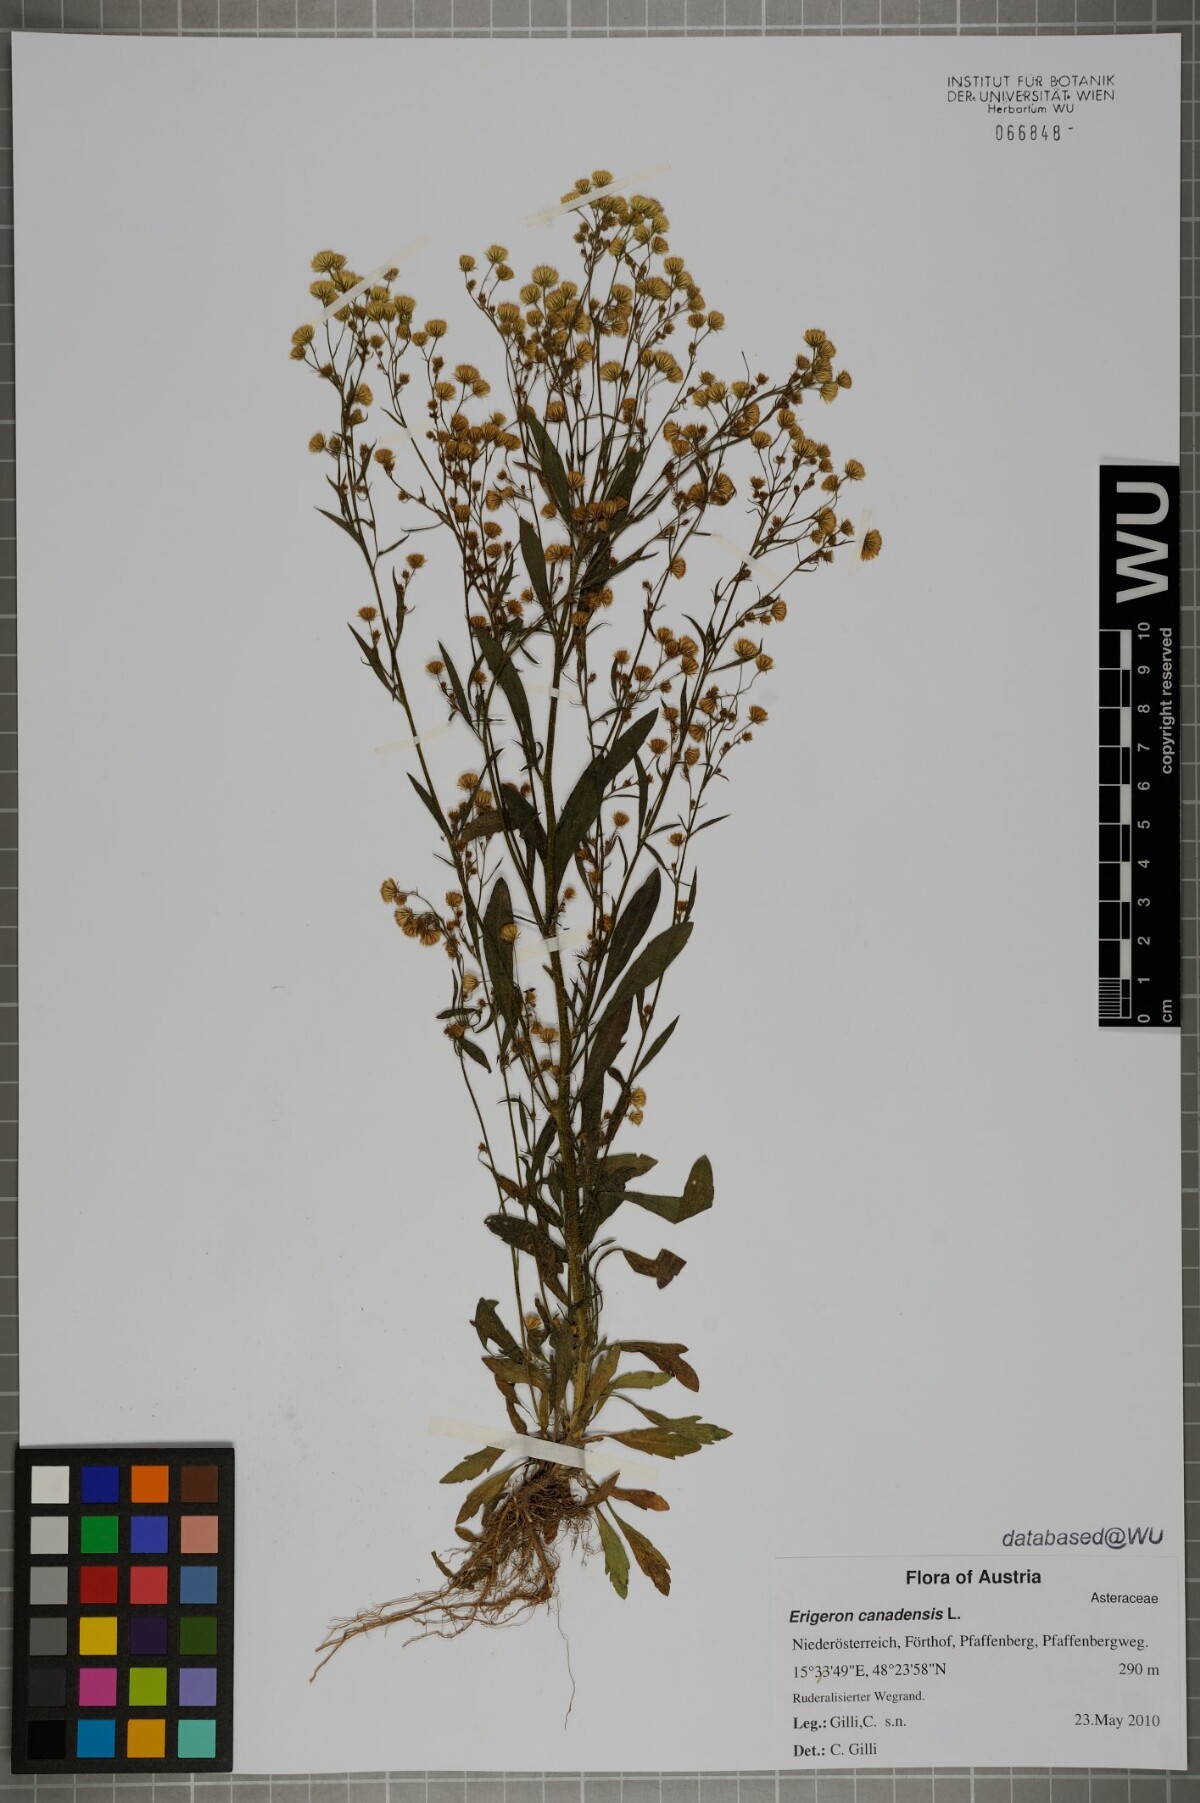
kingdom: Plantae
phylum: Tracheophyta
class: Magnoliopsida
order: Asterales
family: Asteraceae
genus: Erigeron
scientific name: Erigeron canadensis
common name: Canadian fleabane
